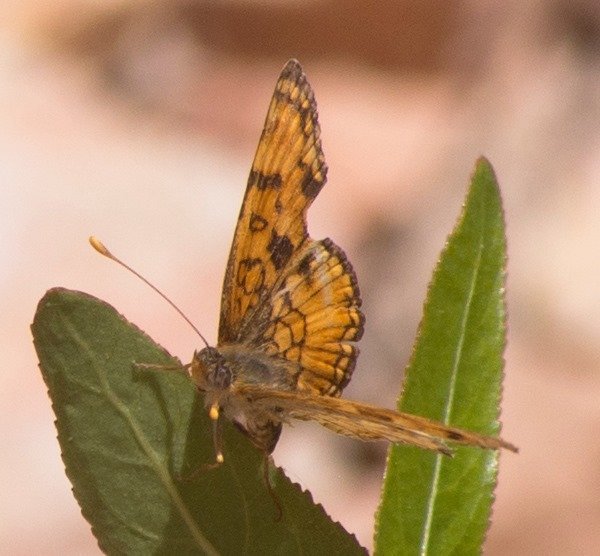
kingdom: Animalia
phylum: Arthropoda
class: Insecta
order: Lepidoptera
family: Nymphalidae
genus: Phyciodes
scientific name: Phyciodes pallida
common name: Pale Crescent
